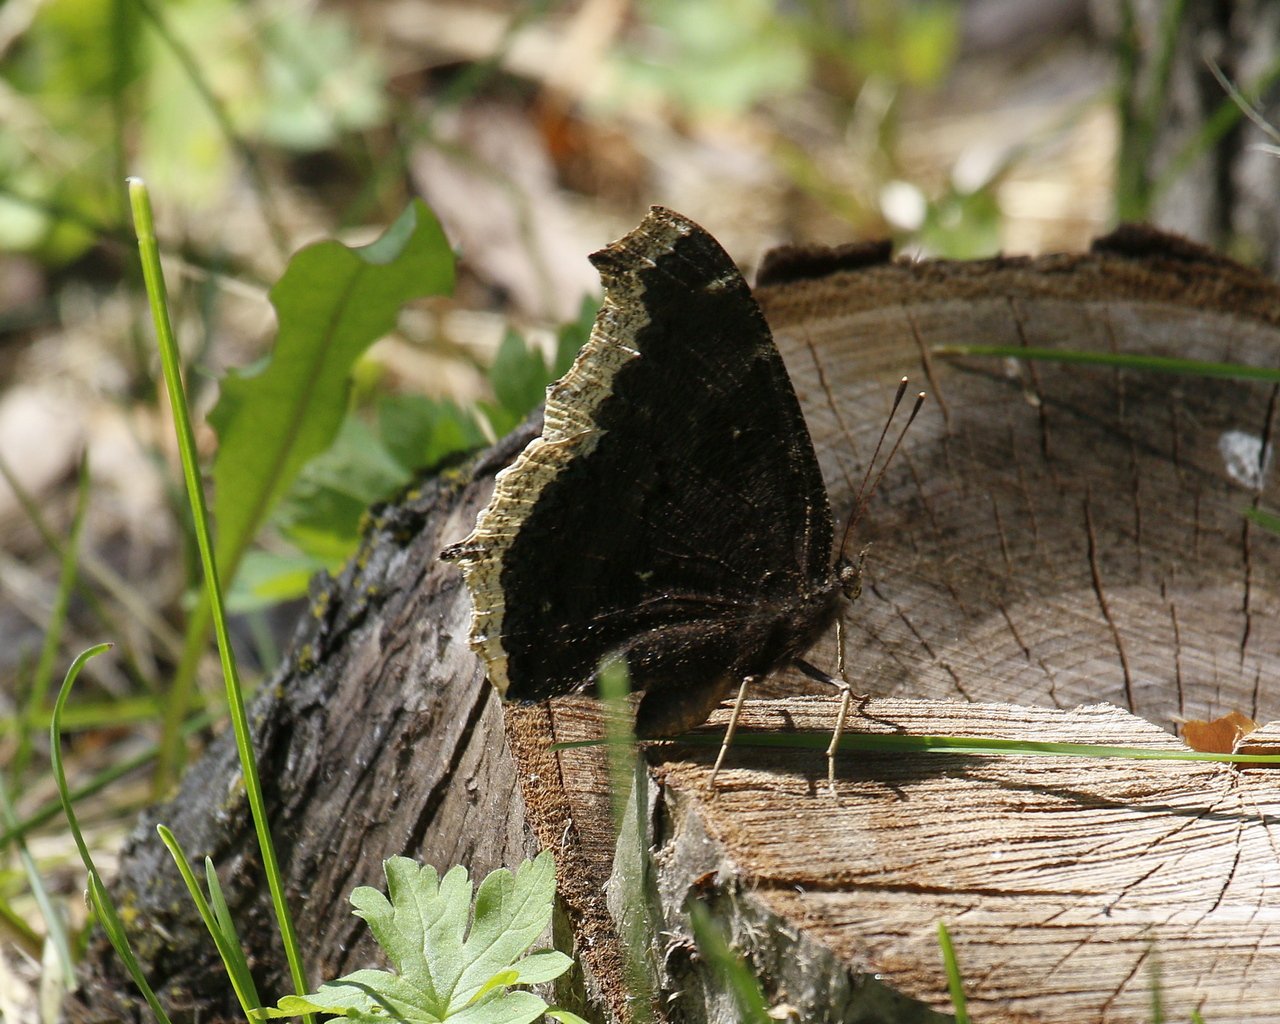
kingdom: Animalia
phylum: Arthropoda
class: Insecta
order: Lepidoptera
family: Nymphalidae
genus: Nymphalis
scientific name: Nymphalis antiopa
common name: Mourning Cloak
